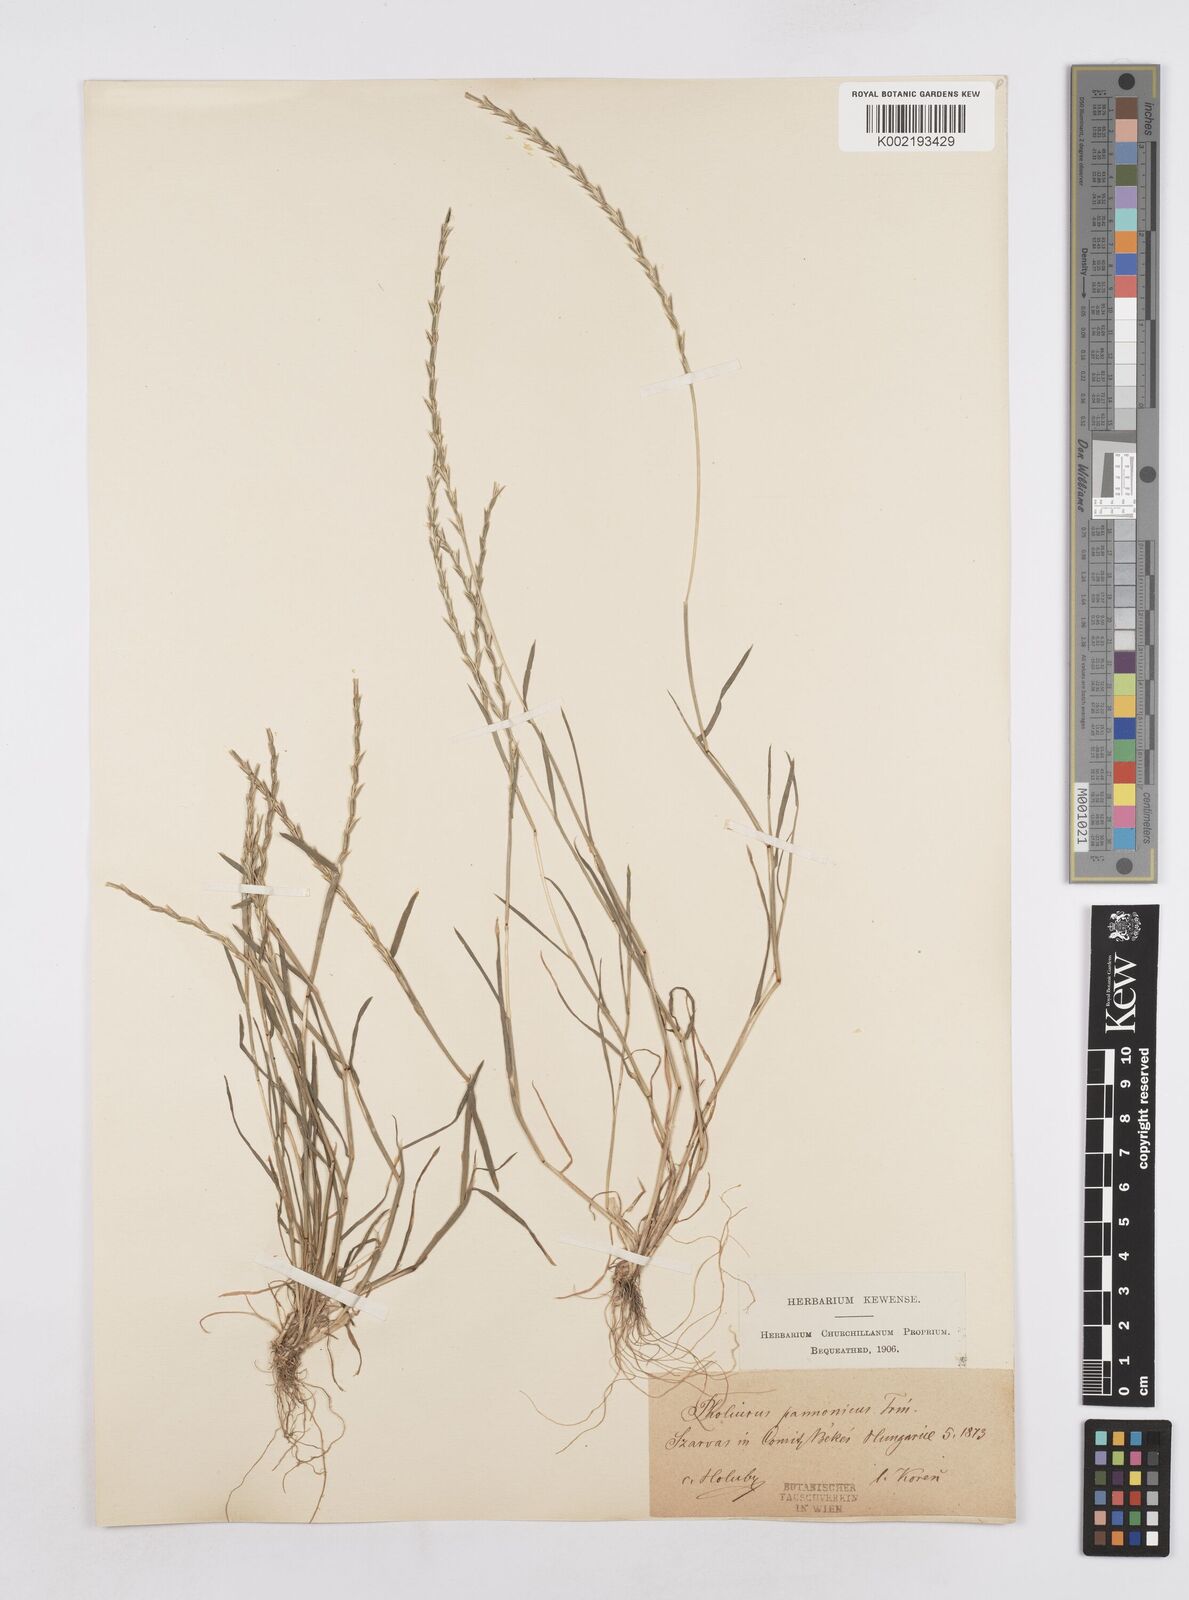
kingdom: Plantae
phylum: Tracheophyta
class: Liliopsida
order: Poales
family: Poaceae
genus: Pholiurus
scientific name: Pholiurus pannonicus
